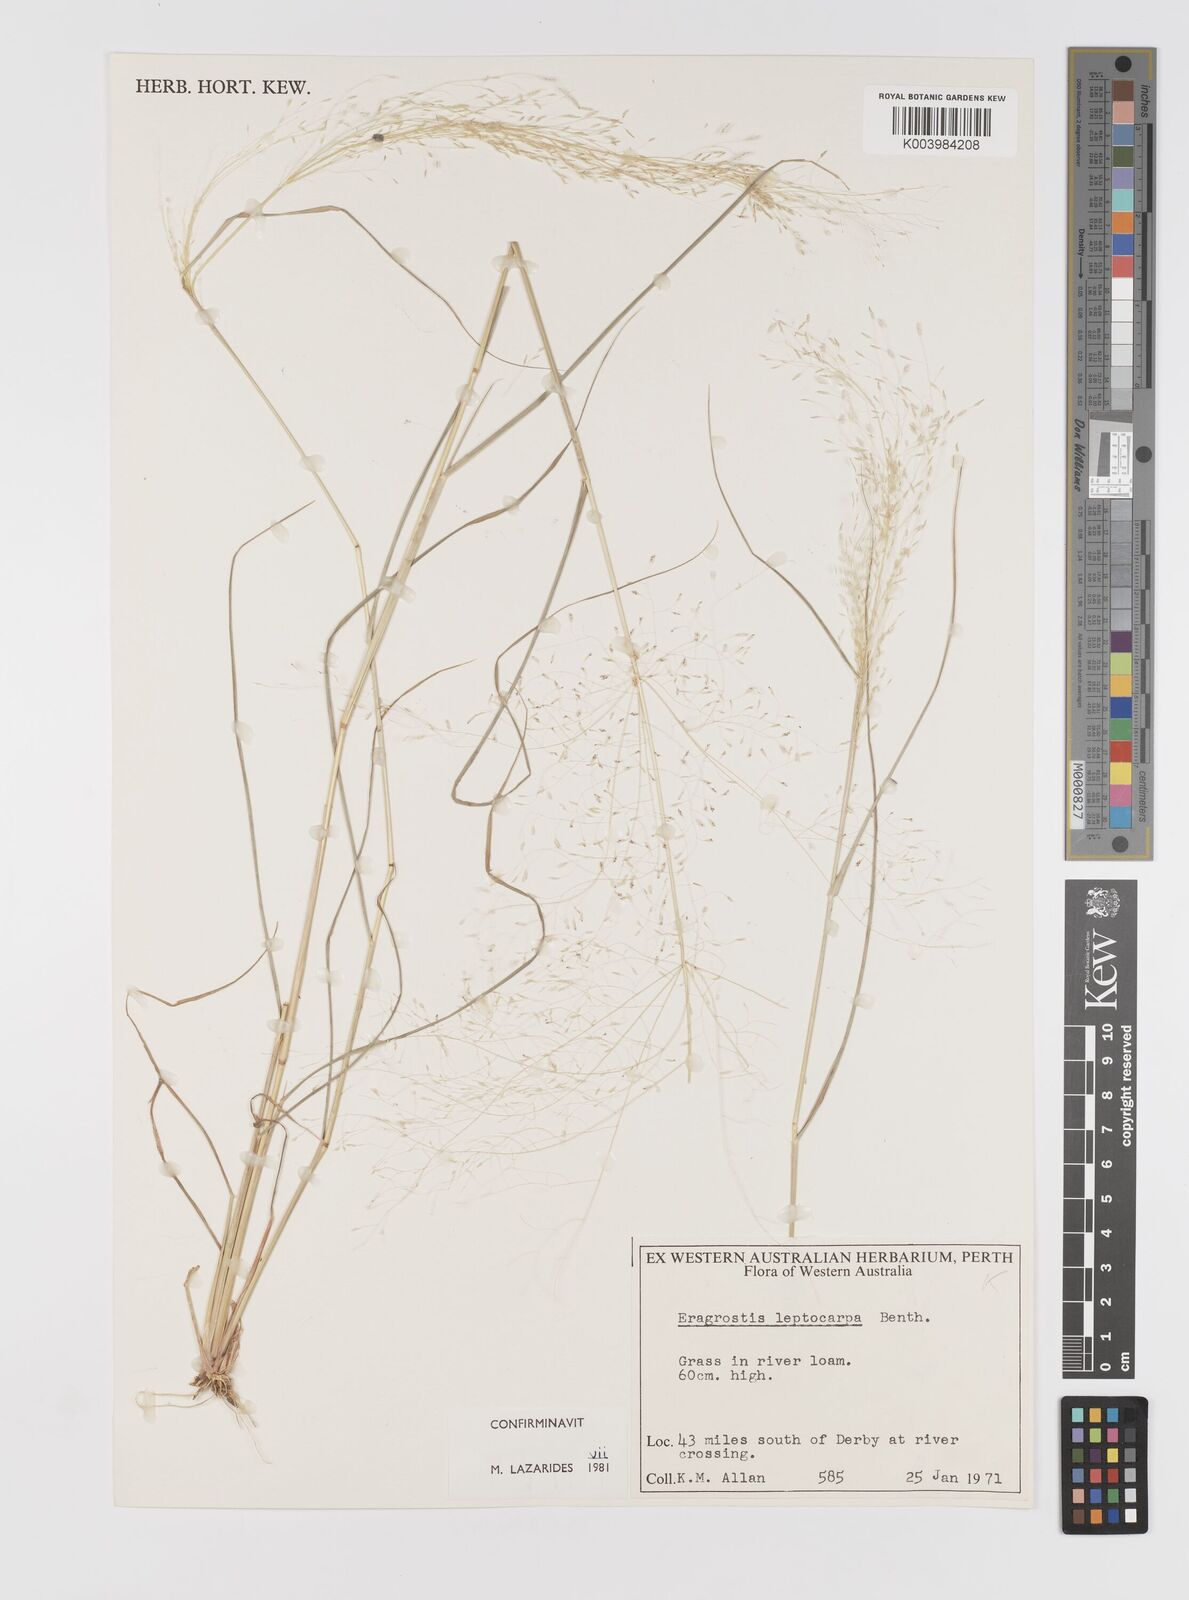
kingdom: Plantae
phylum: Tracheophyta
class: Liliopsida
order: Poales
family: Poaceae
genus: Eragrostis
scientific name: Eragrostis leptocarpa
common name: Drooping love grass
